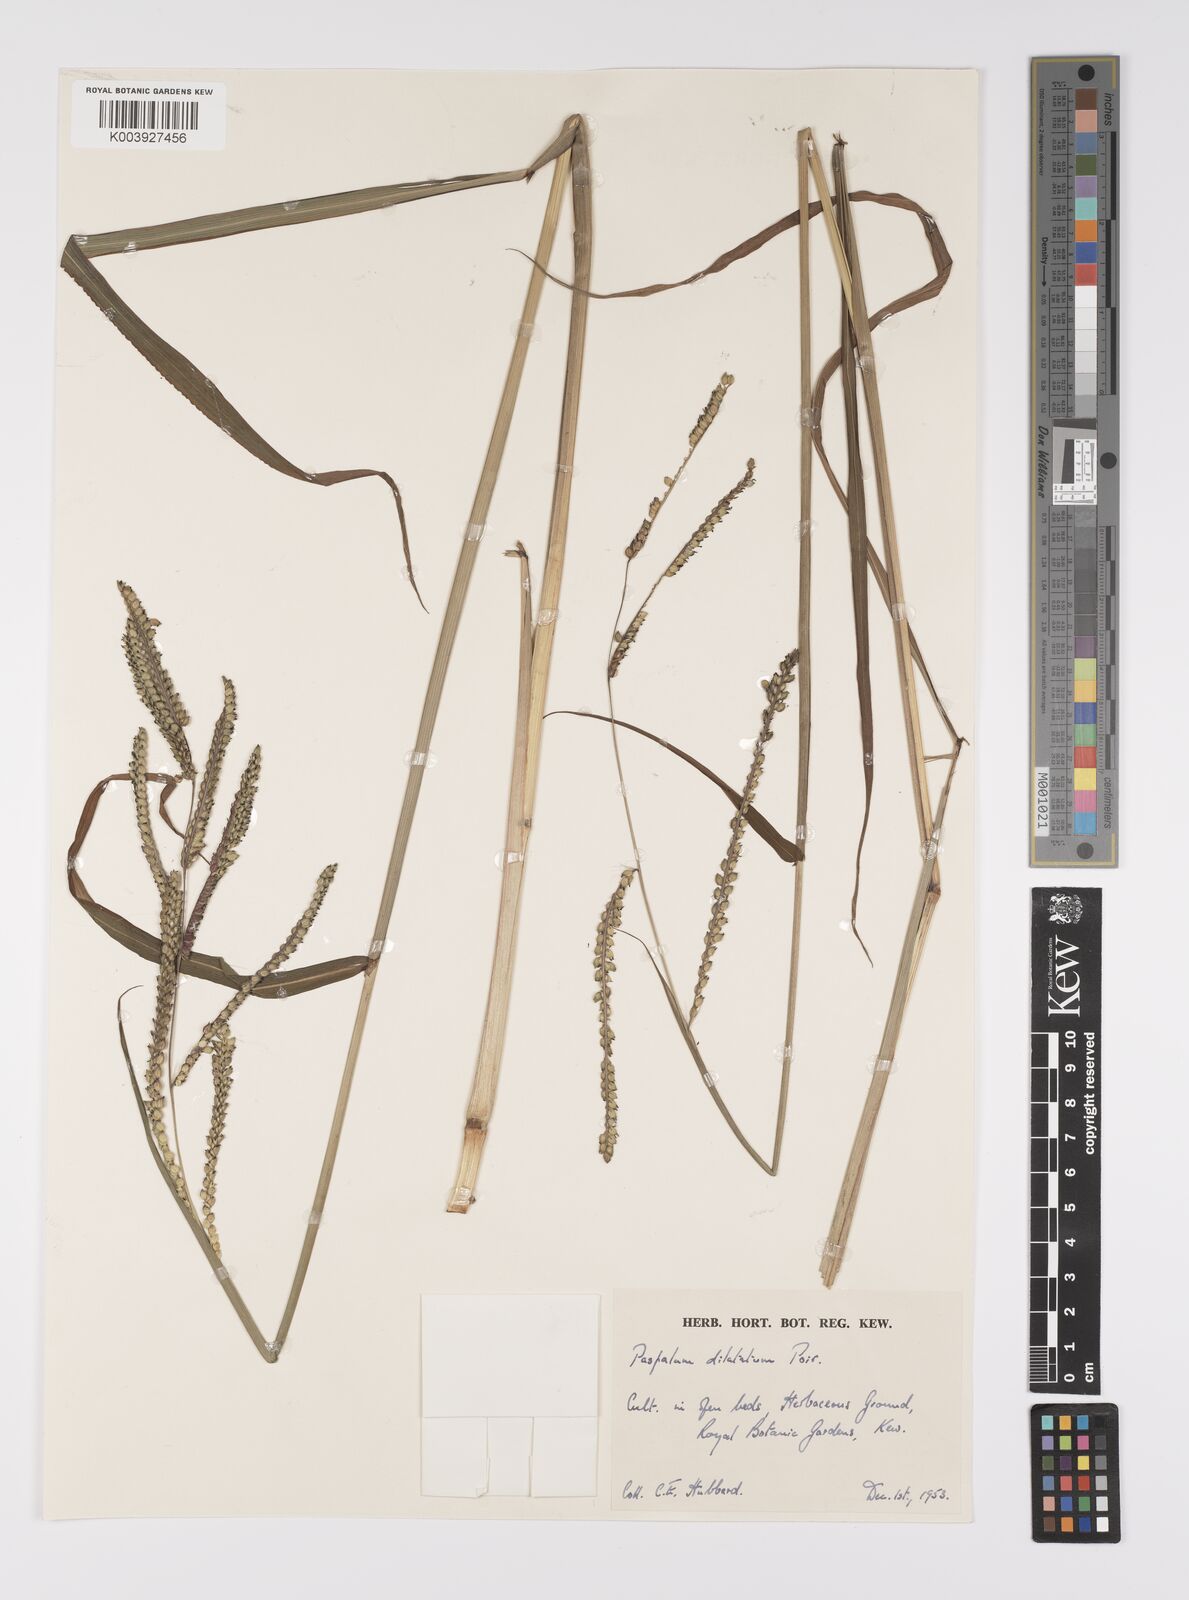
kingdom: Plantae
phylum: Tracheophyta
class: Liliopsida
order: Poales
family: Poaceae
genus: Paspalum
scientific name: Paspalum dilatatum
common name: Dallisgrass
